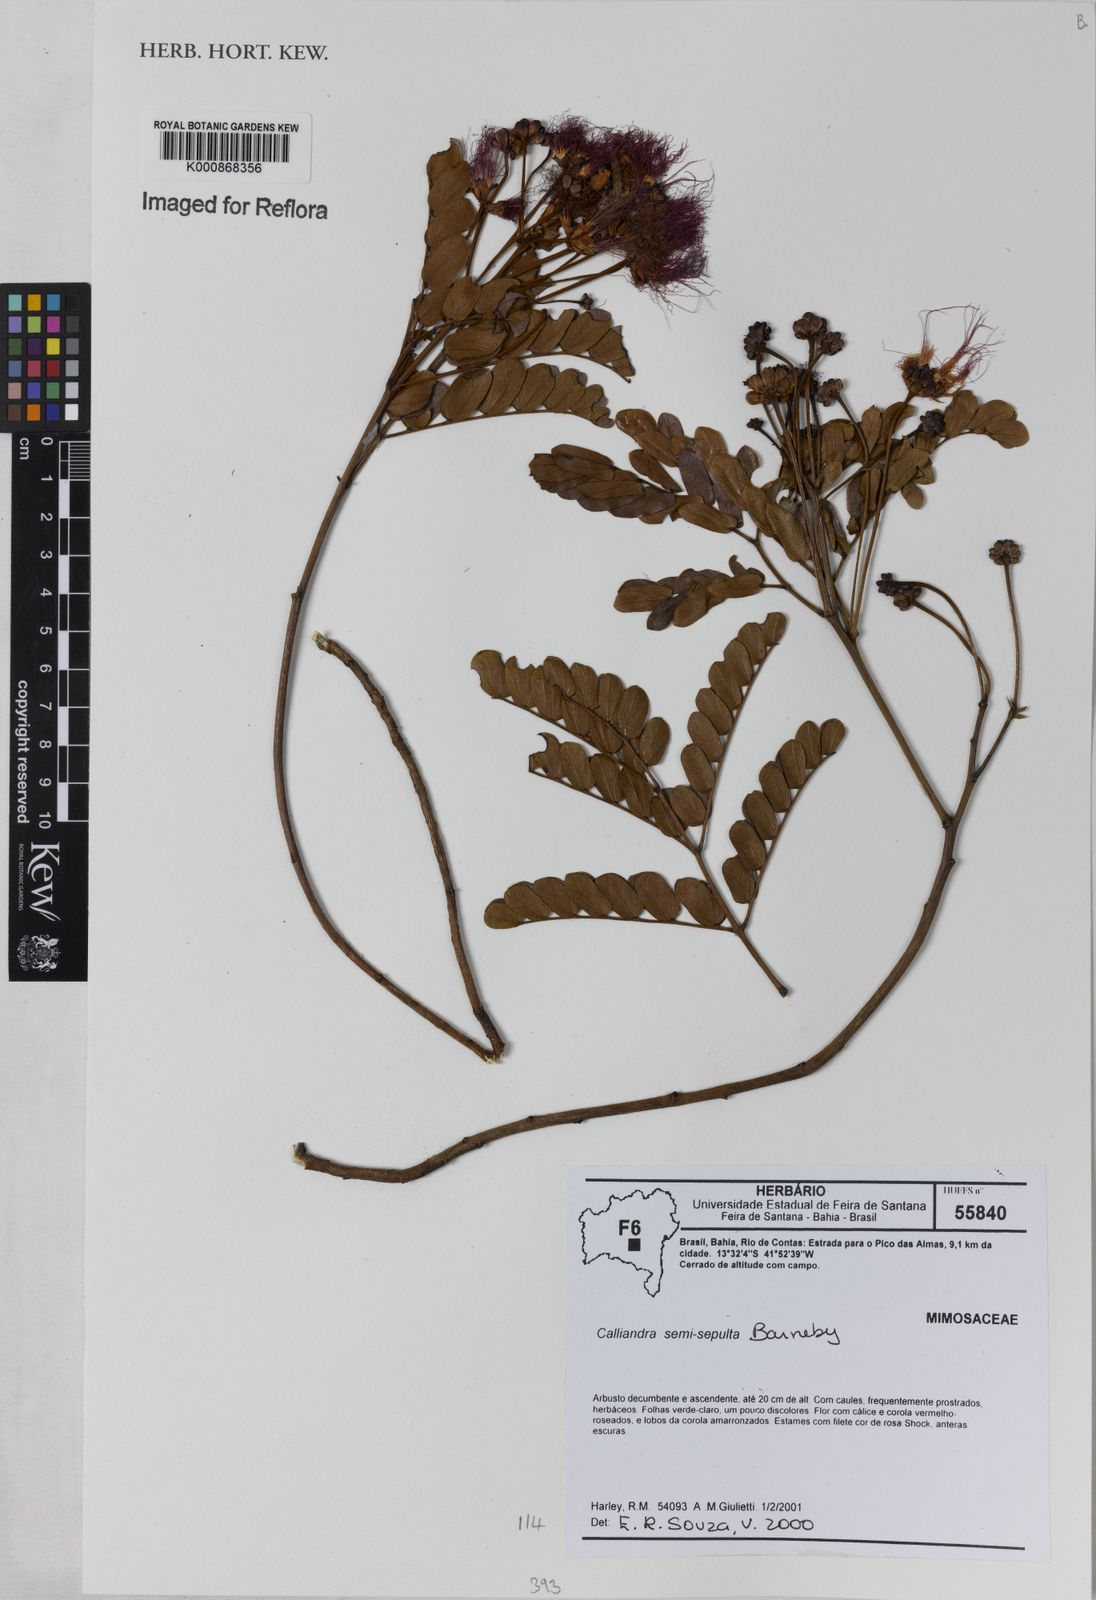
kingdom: Plantae
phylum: Tracheophyta
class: Magnoliopsida
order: Fabales
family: Fabaceae
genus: Calliandra
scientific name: Calliandra semisepulta
